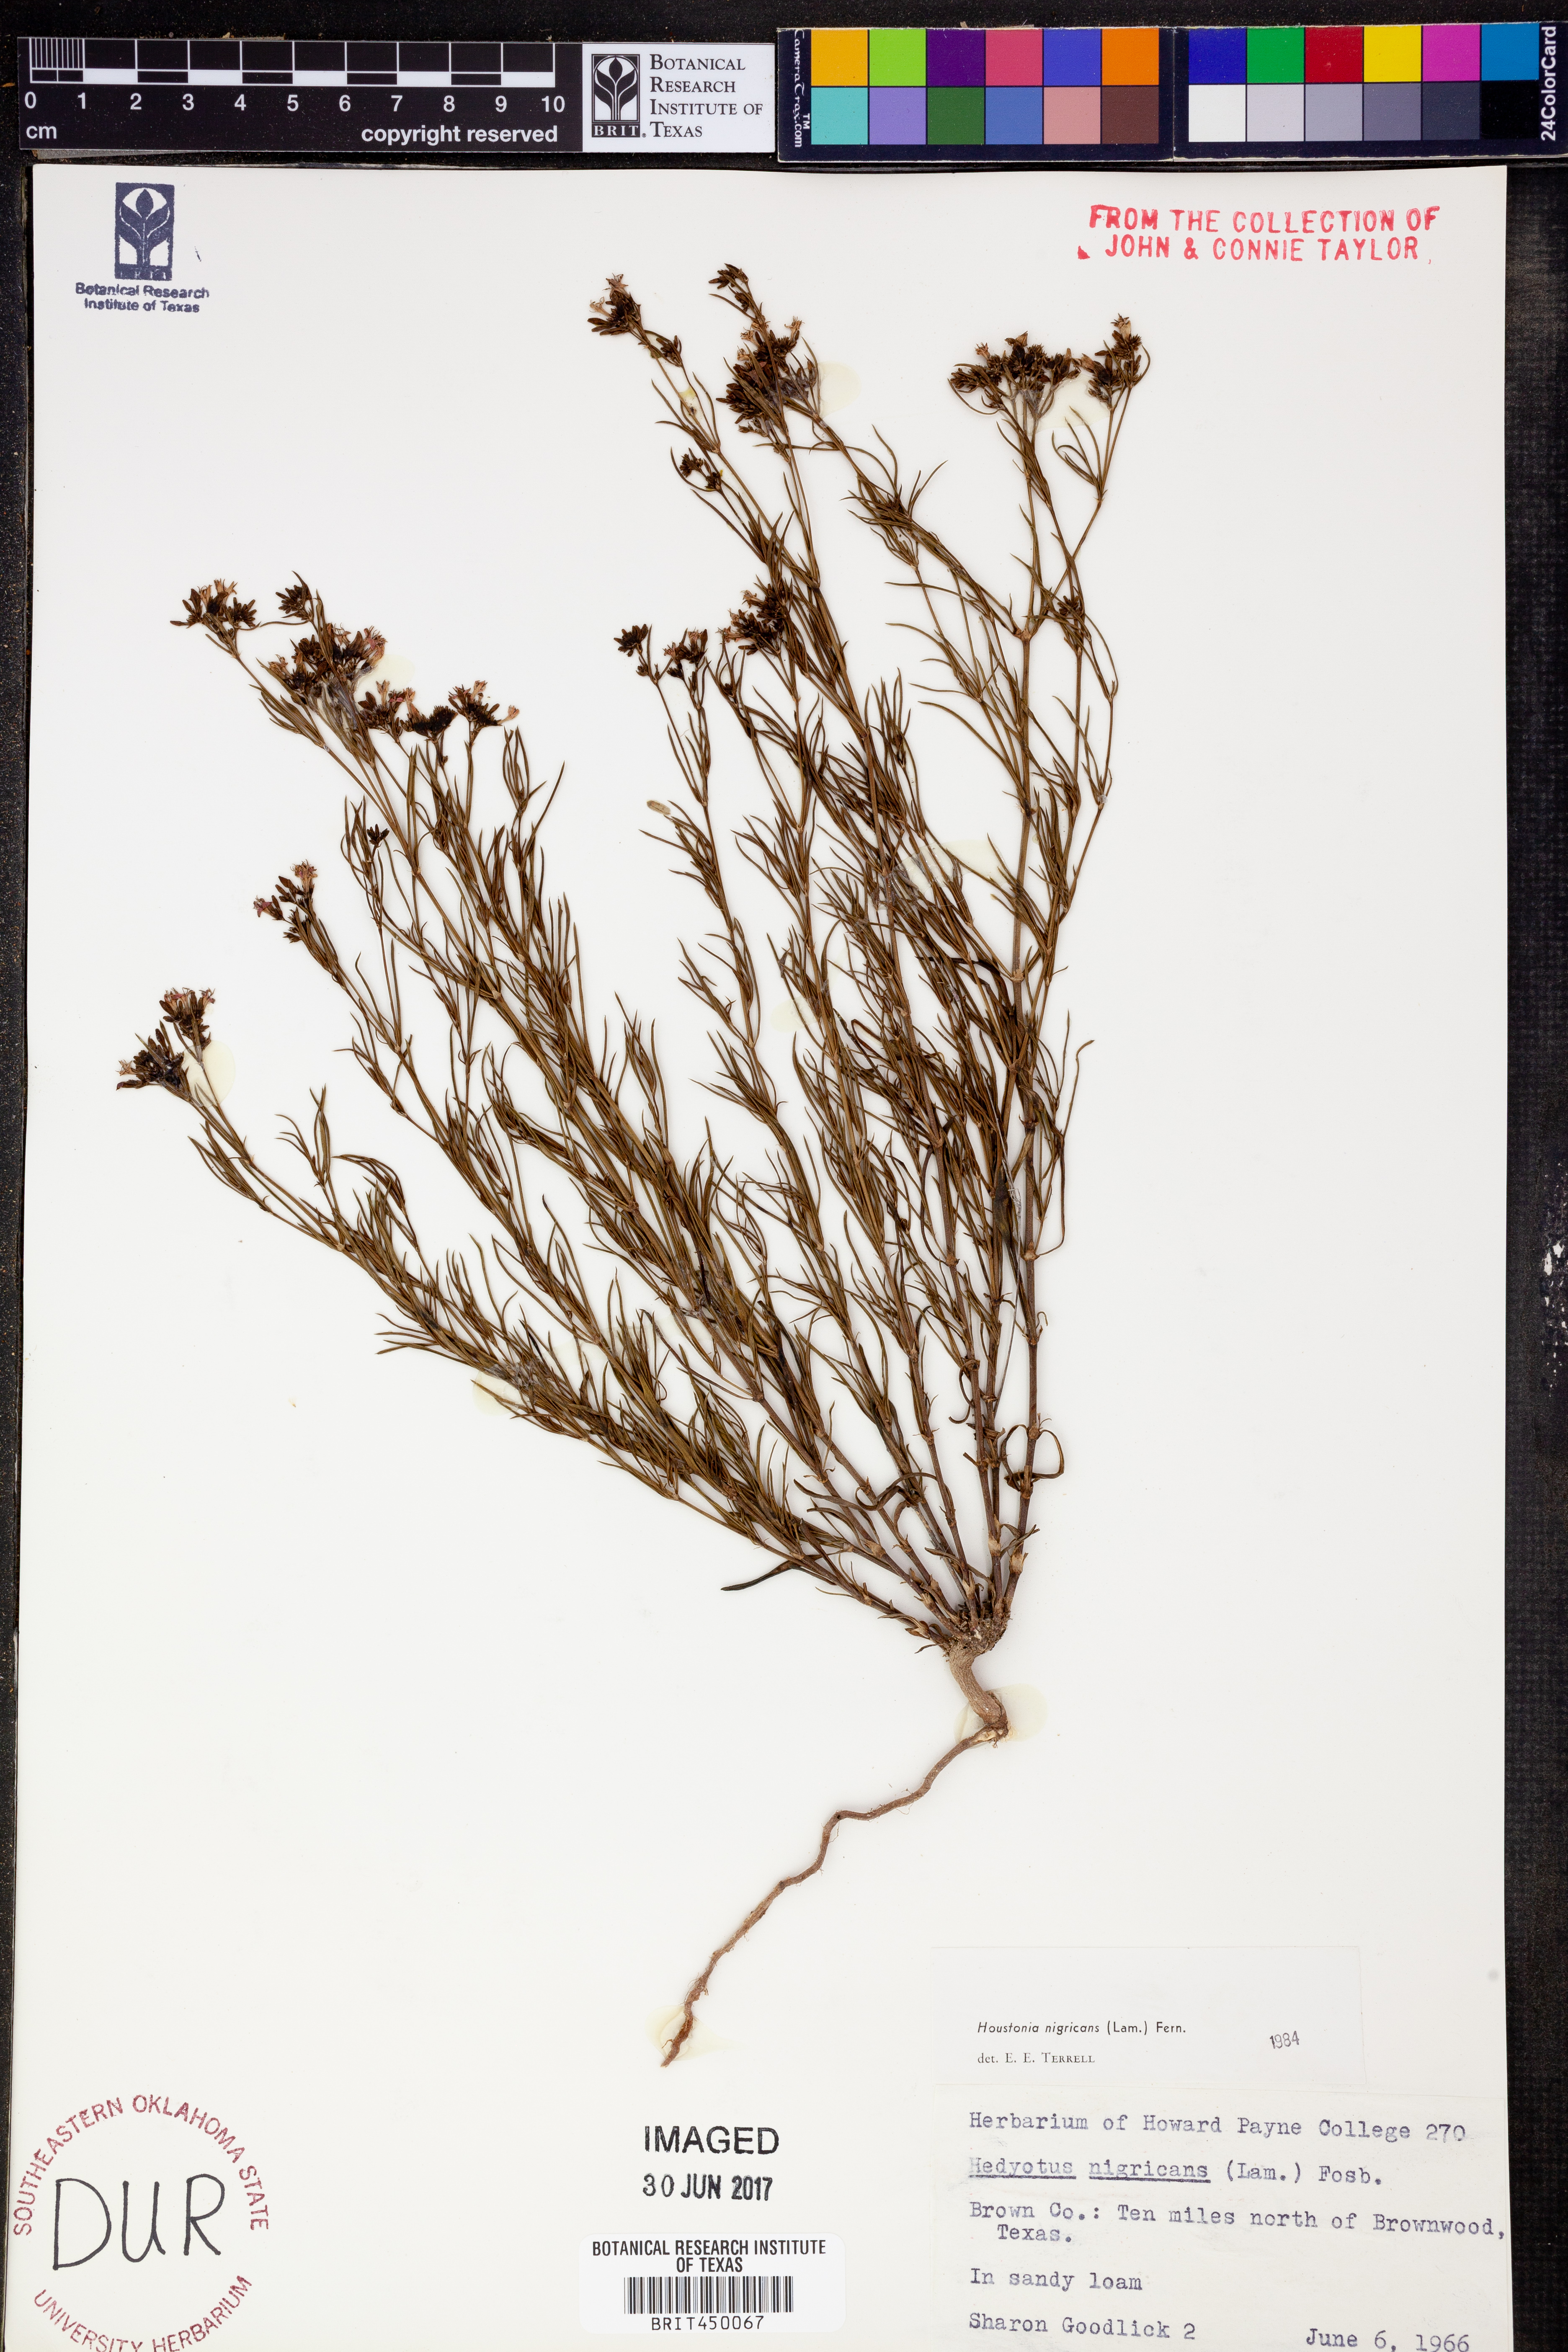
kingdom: Plantae
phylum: Tracheophyta
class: Magnoliopsida
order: Gentianales
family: Rubiaceae
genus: Stenaria
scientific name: Stenaria nigricans
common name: Diamondflowers
